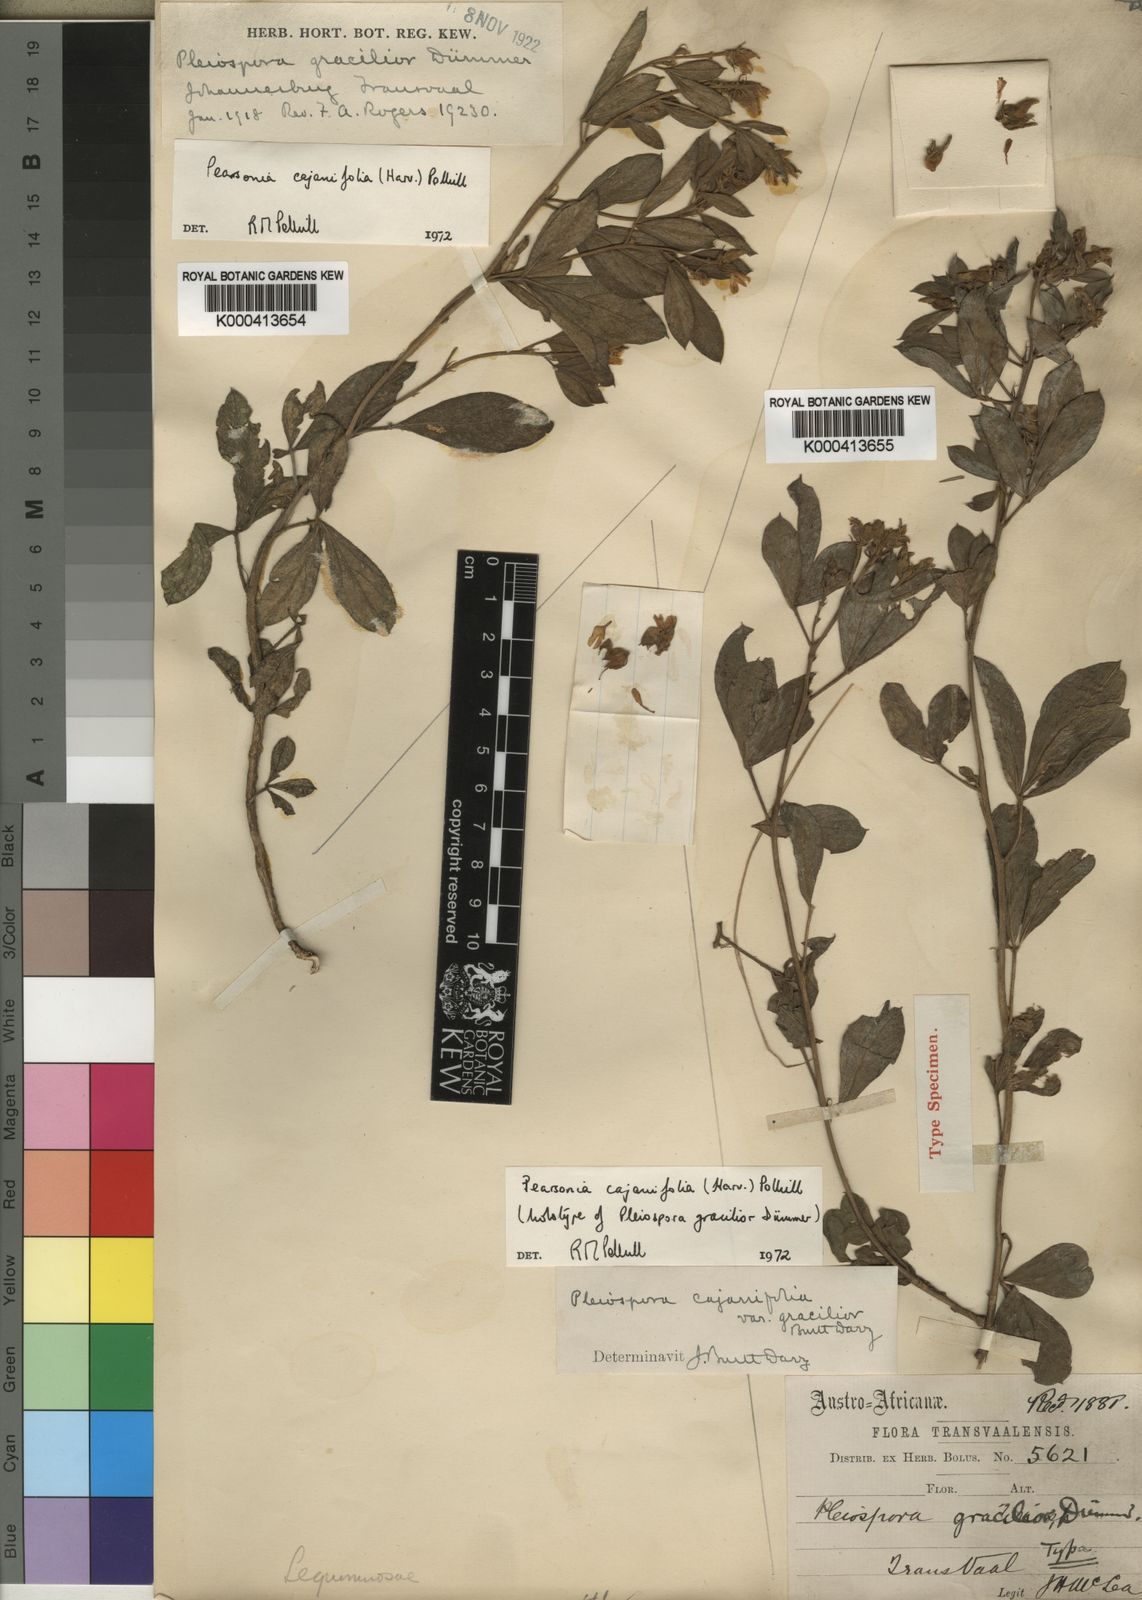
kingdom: Plantae
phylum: Tracheophyta
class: Magnoliopsida
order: Fabales
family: Fabaceae
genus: Pearsonia
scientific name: Pearsonia cajanifolia
